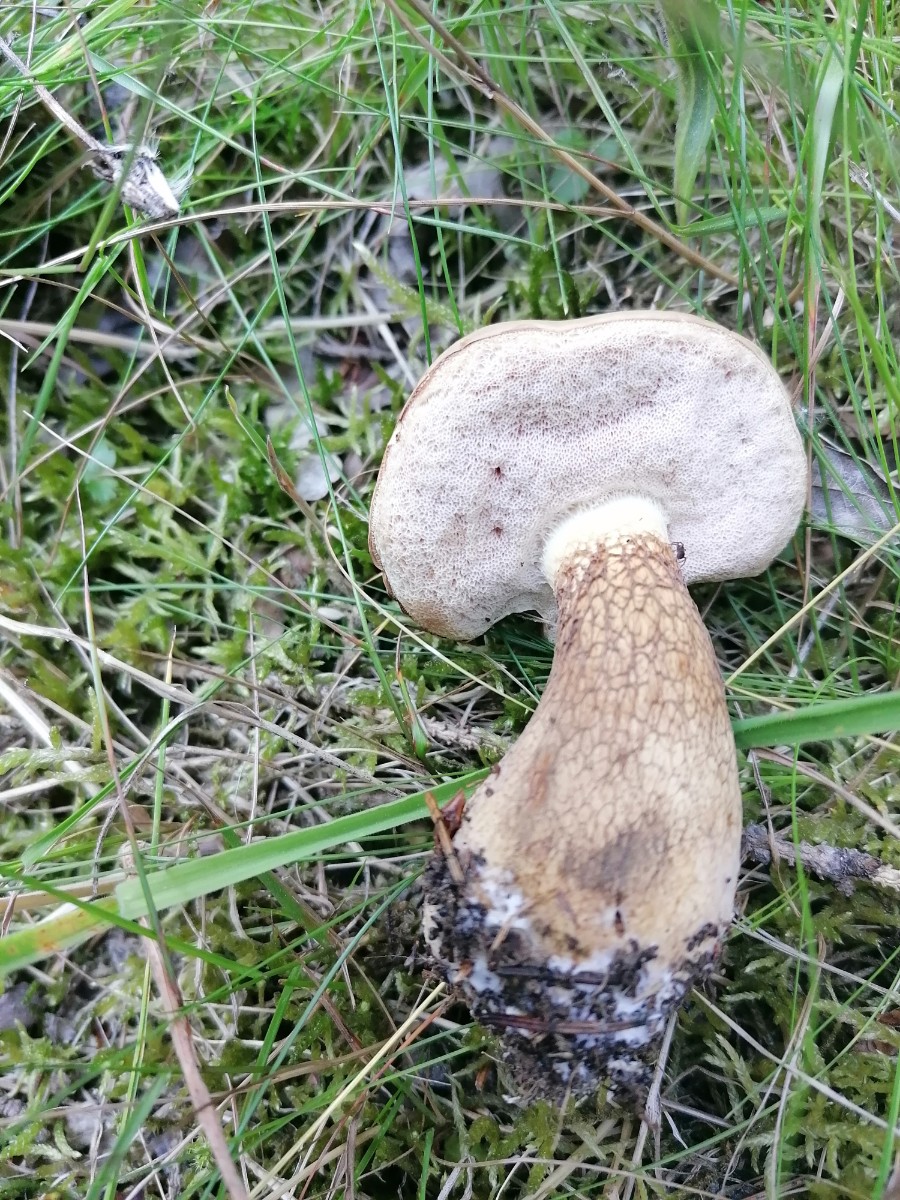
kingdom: Fungi
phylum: Basidiomycota
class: Agaricomycetes
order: Boletales
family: Boletaceae
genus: Tylopilus
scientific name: Tylopilus felleus
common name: galderørhat
